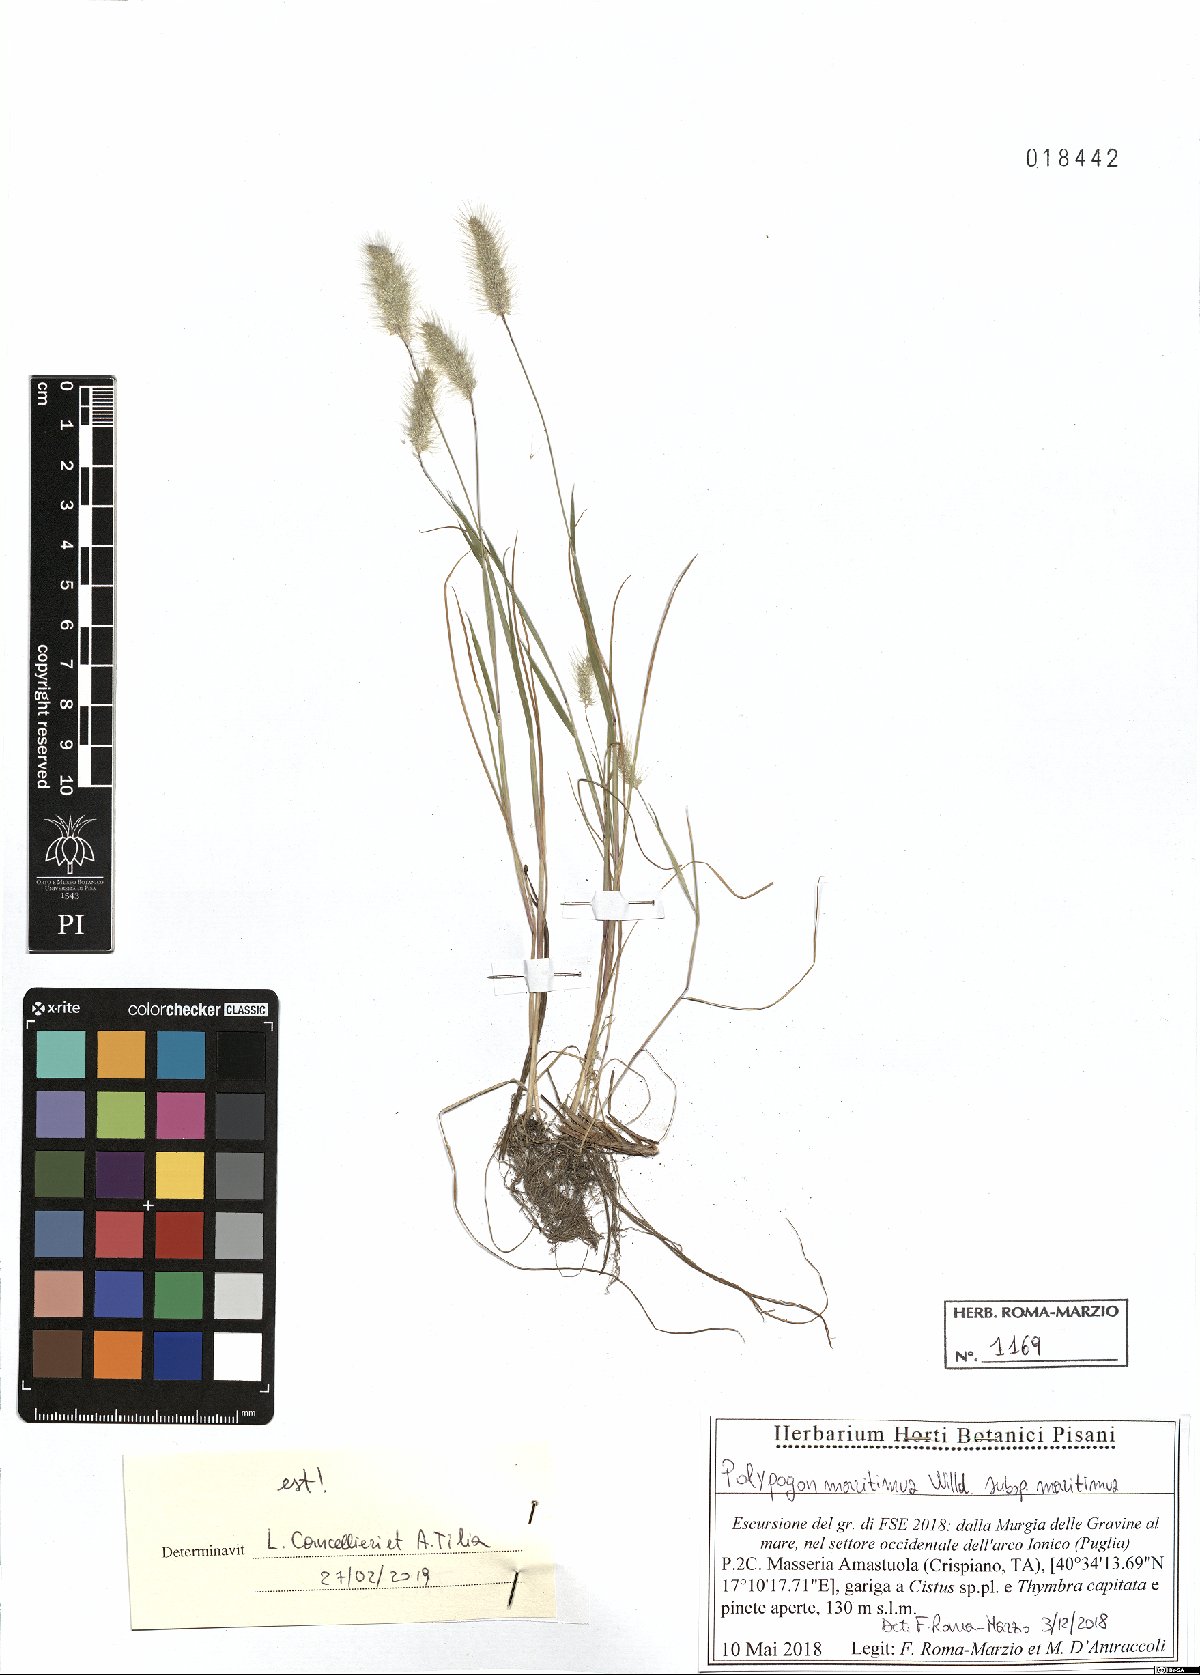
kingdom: Plantae
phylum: Tracheophyta
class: Liliopsida
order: Poales
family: Poaceae
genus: Polypogon
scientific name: Polypogon maritimus
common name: Mediterranean rabbitsfoot grass
